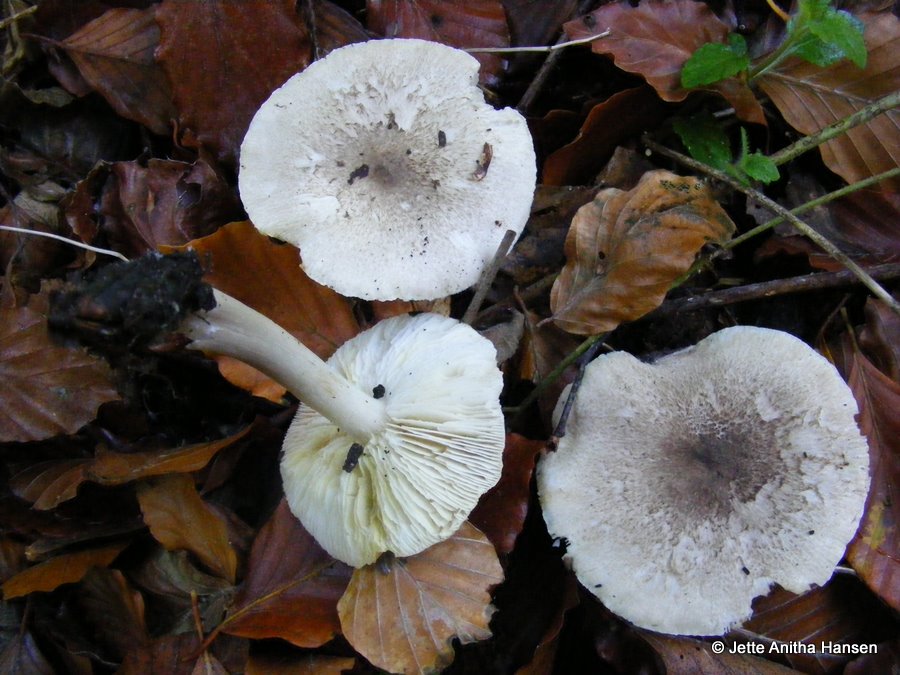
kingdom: Fungi
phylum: Basidiomycota
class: Agaricomycetes
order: Agaricales
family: Tricholomataceae
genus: Tricholoma
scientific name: Tricholoma scalpturatum
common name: gulplettet ridderhat
